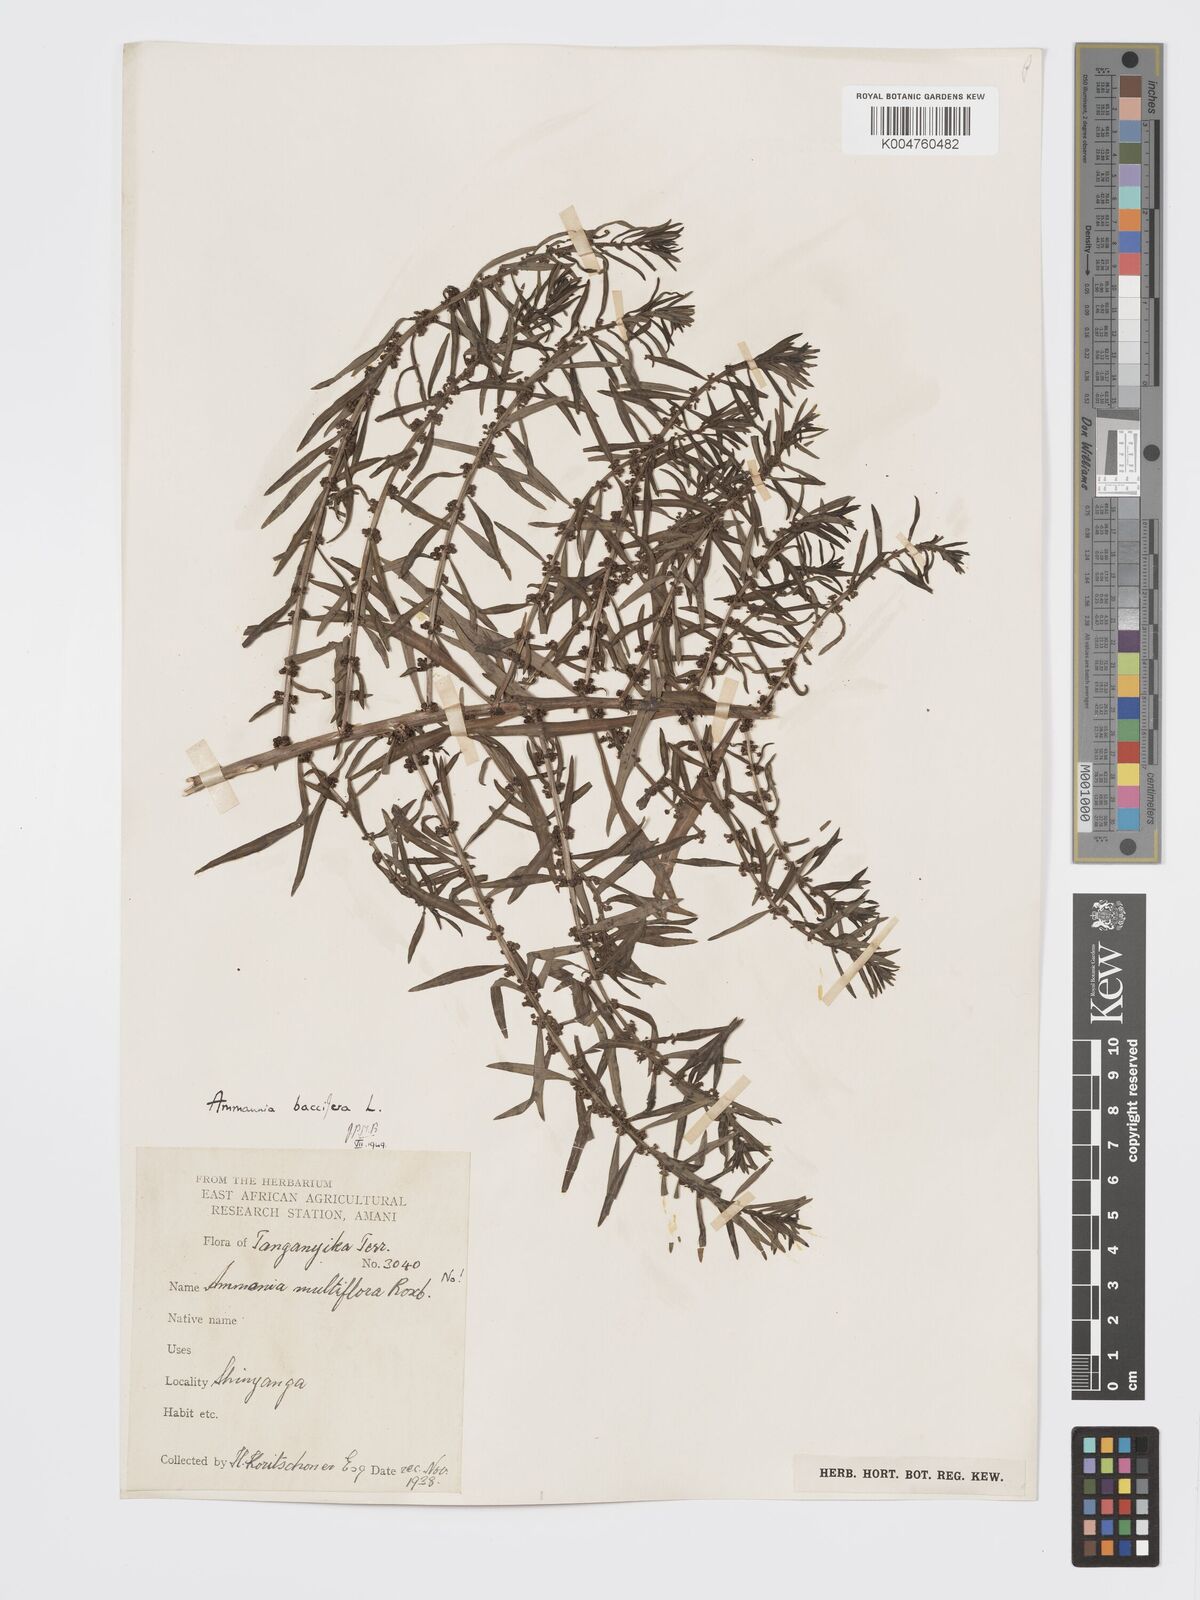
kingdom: Plantae
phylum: Tracheophyta
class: Magnoliopsida
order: Myrtales
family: Lythraceae
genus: Ammannia
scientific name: Ammannia
